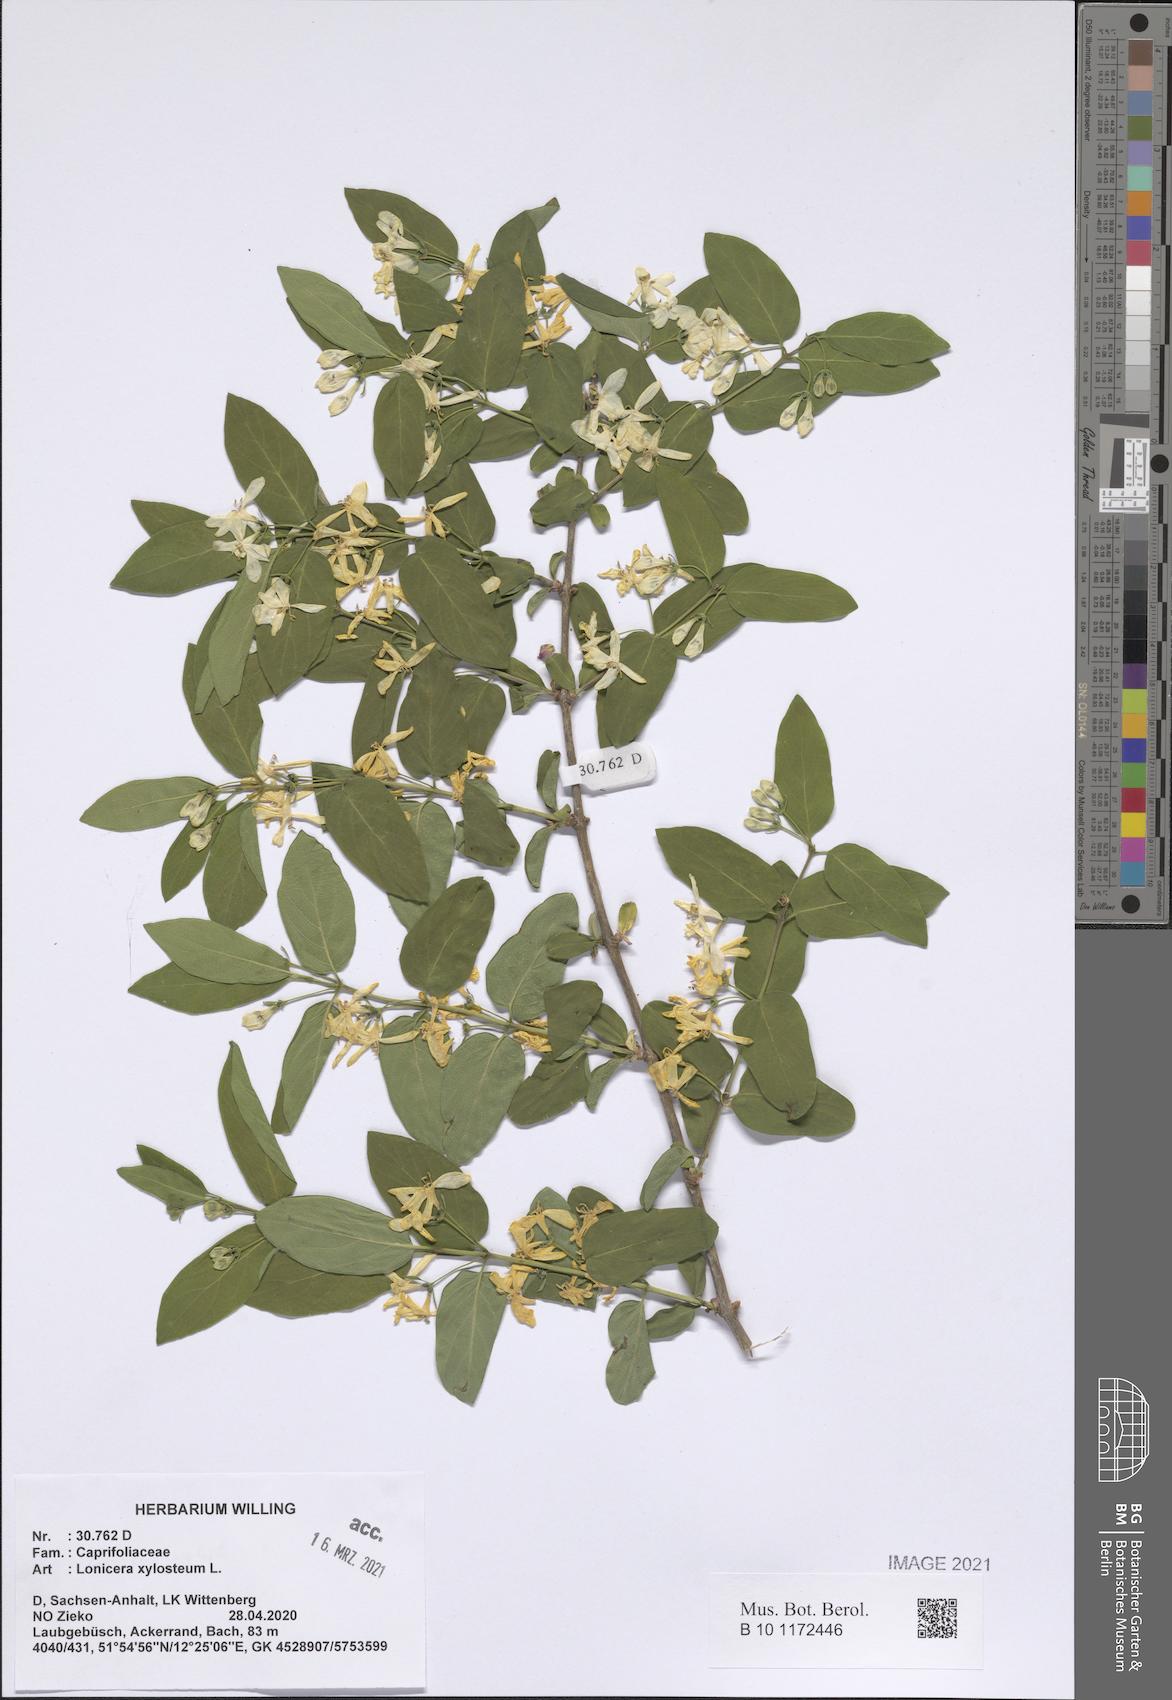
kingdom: Plantae
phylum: Tracheophyta
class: Magnoliopsida
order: Dipsacales
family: Caprifoliaceae
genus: Lonicera
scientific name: Lonicera xylosteum
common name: Fly honeysuckle
